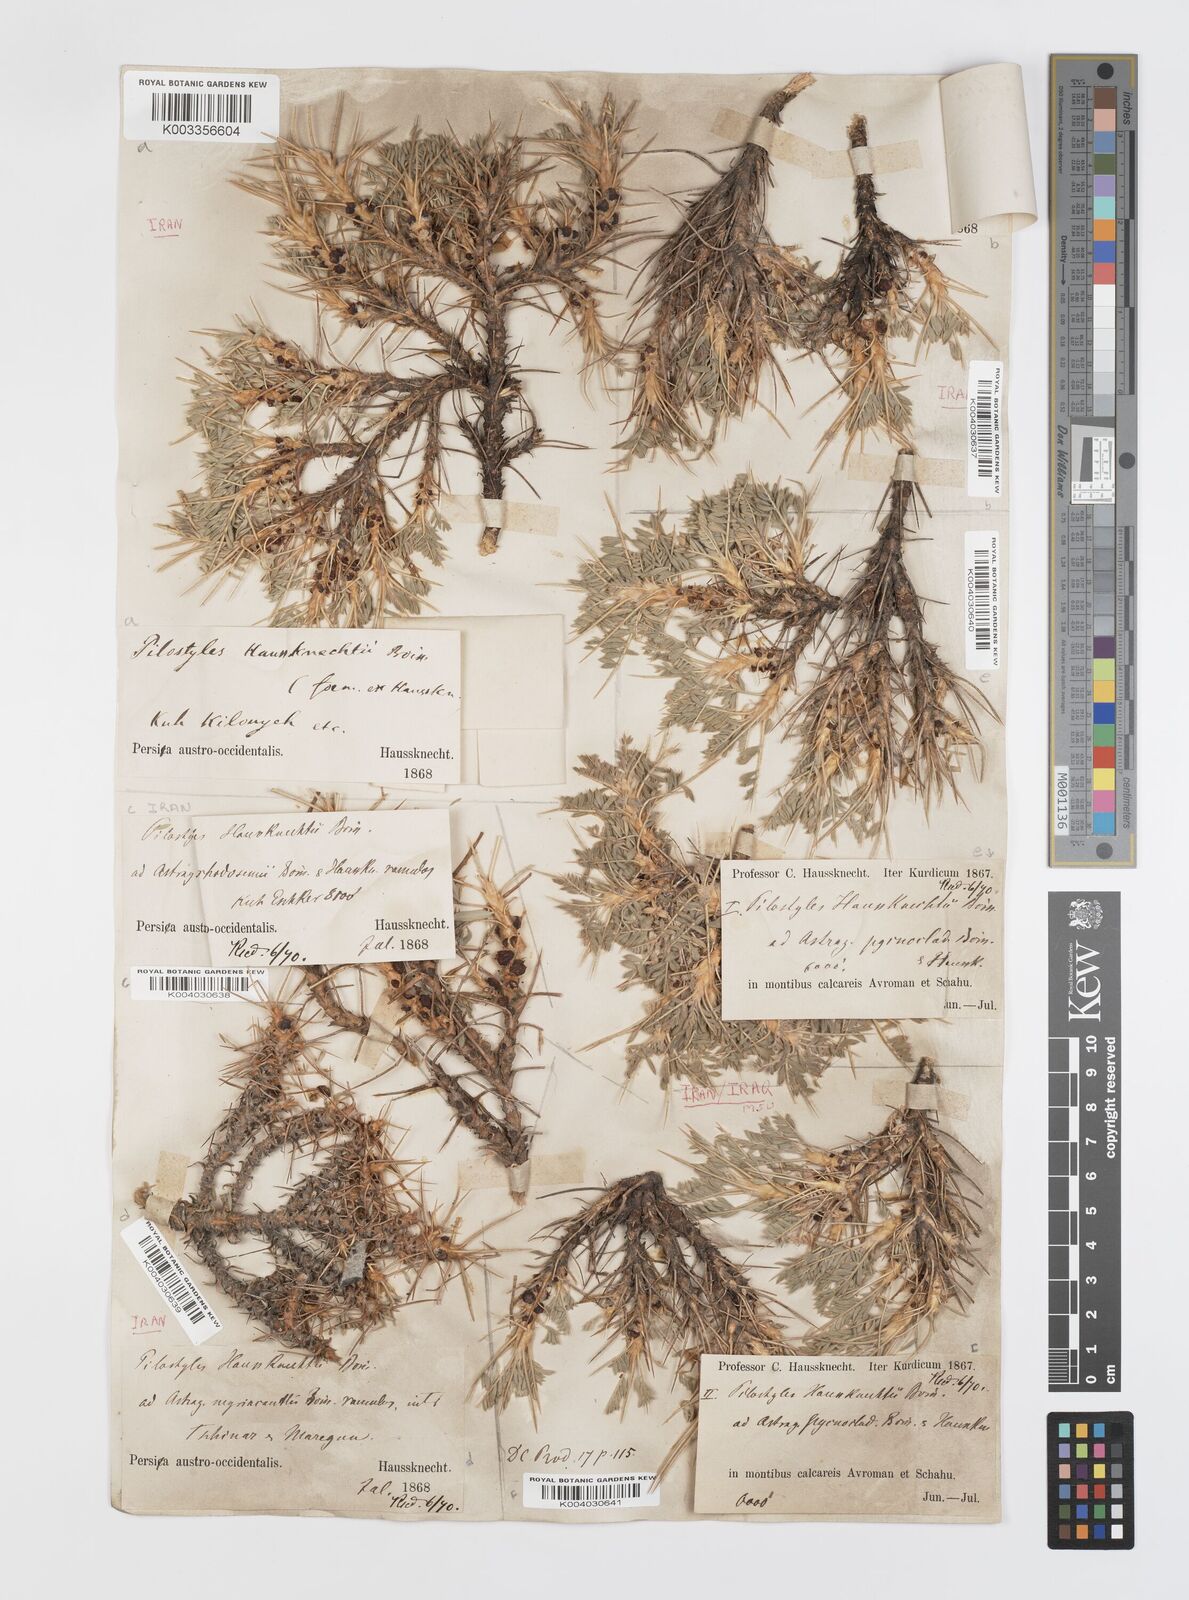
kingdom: Plantae
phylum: Tracheophyta
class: Magnoliopsida
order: Cucurbitales
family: Apodanthaceae
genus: Pilostyles
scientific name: Pilostyles haussknechtii
